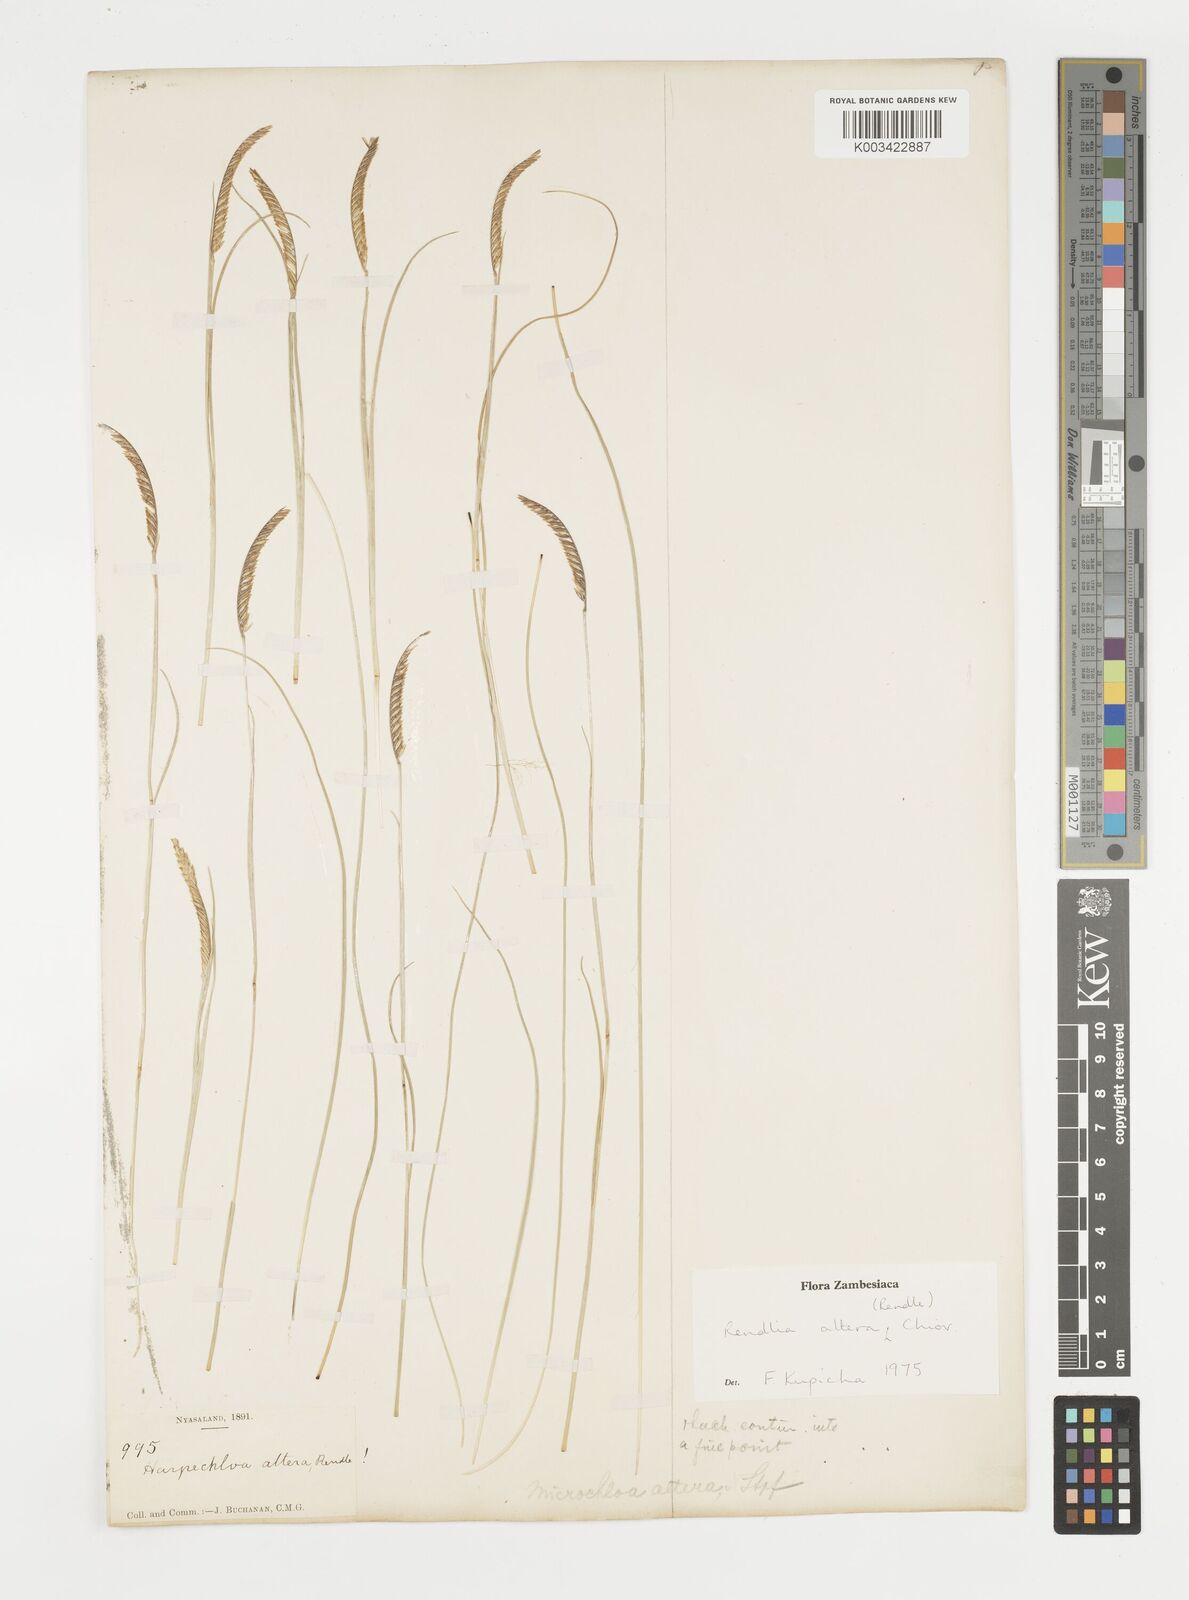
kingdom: Plantae
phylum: Tracheophyta
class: Liliopsida
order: Poales
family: Poaceae
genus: Microchloa
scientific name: Microchloa altera
